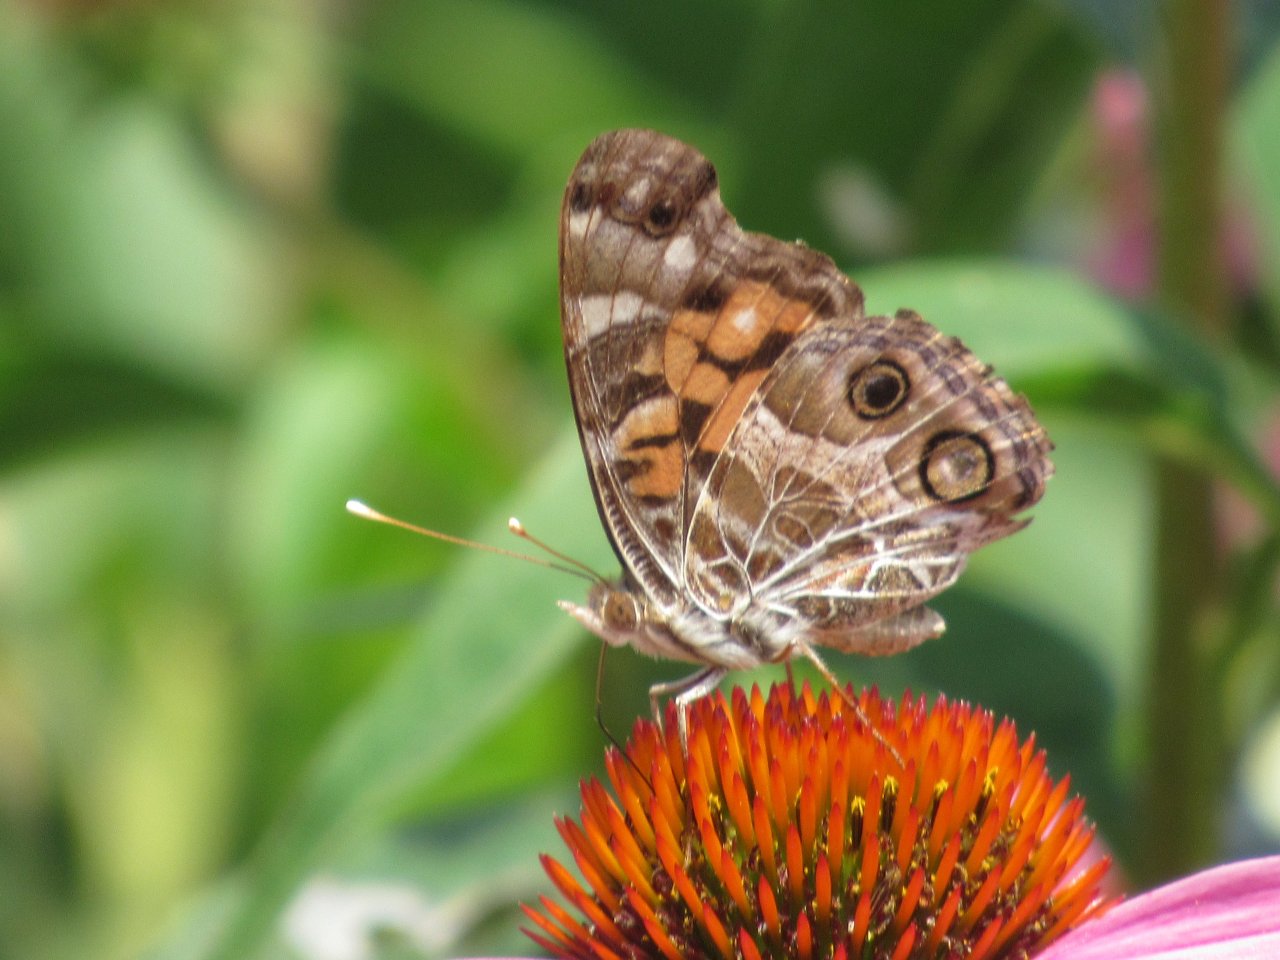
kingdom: Animalia
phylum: Arthropoda
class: Insecta
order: Lepidoptera
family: Nymphalidae
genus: Vanessa
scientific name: Vanessa virginiensis
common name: American Lady
